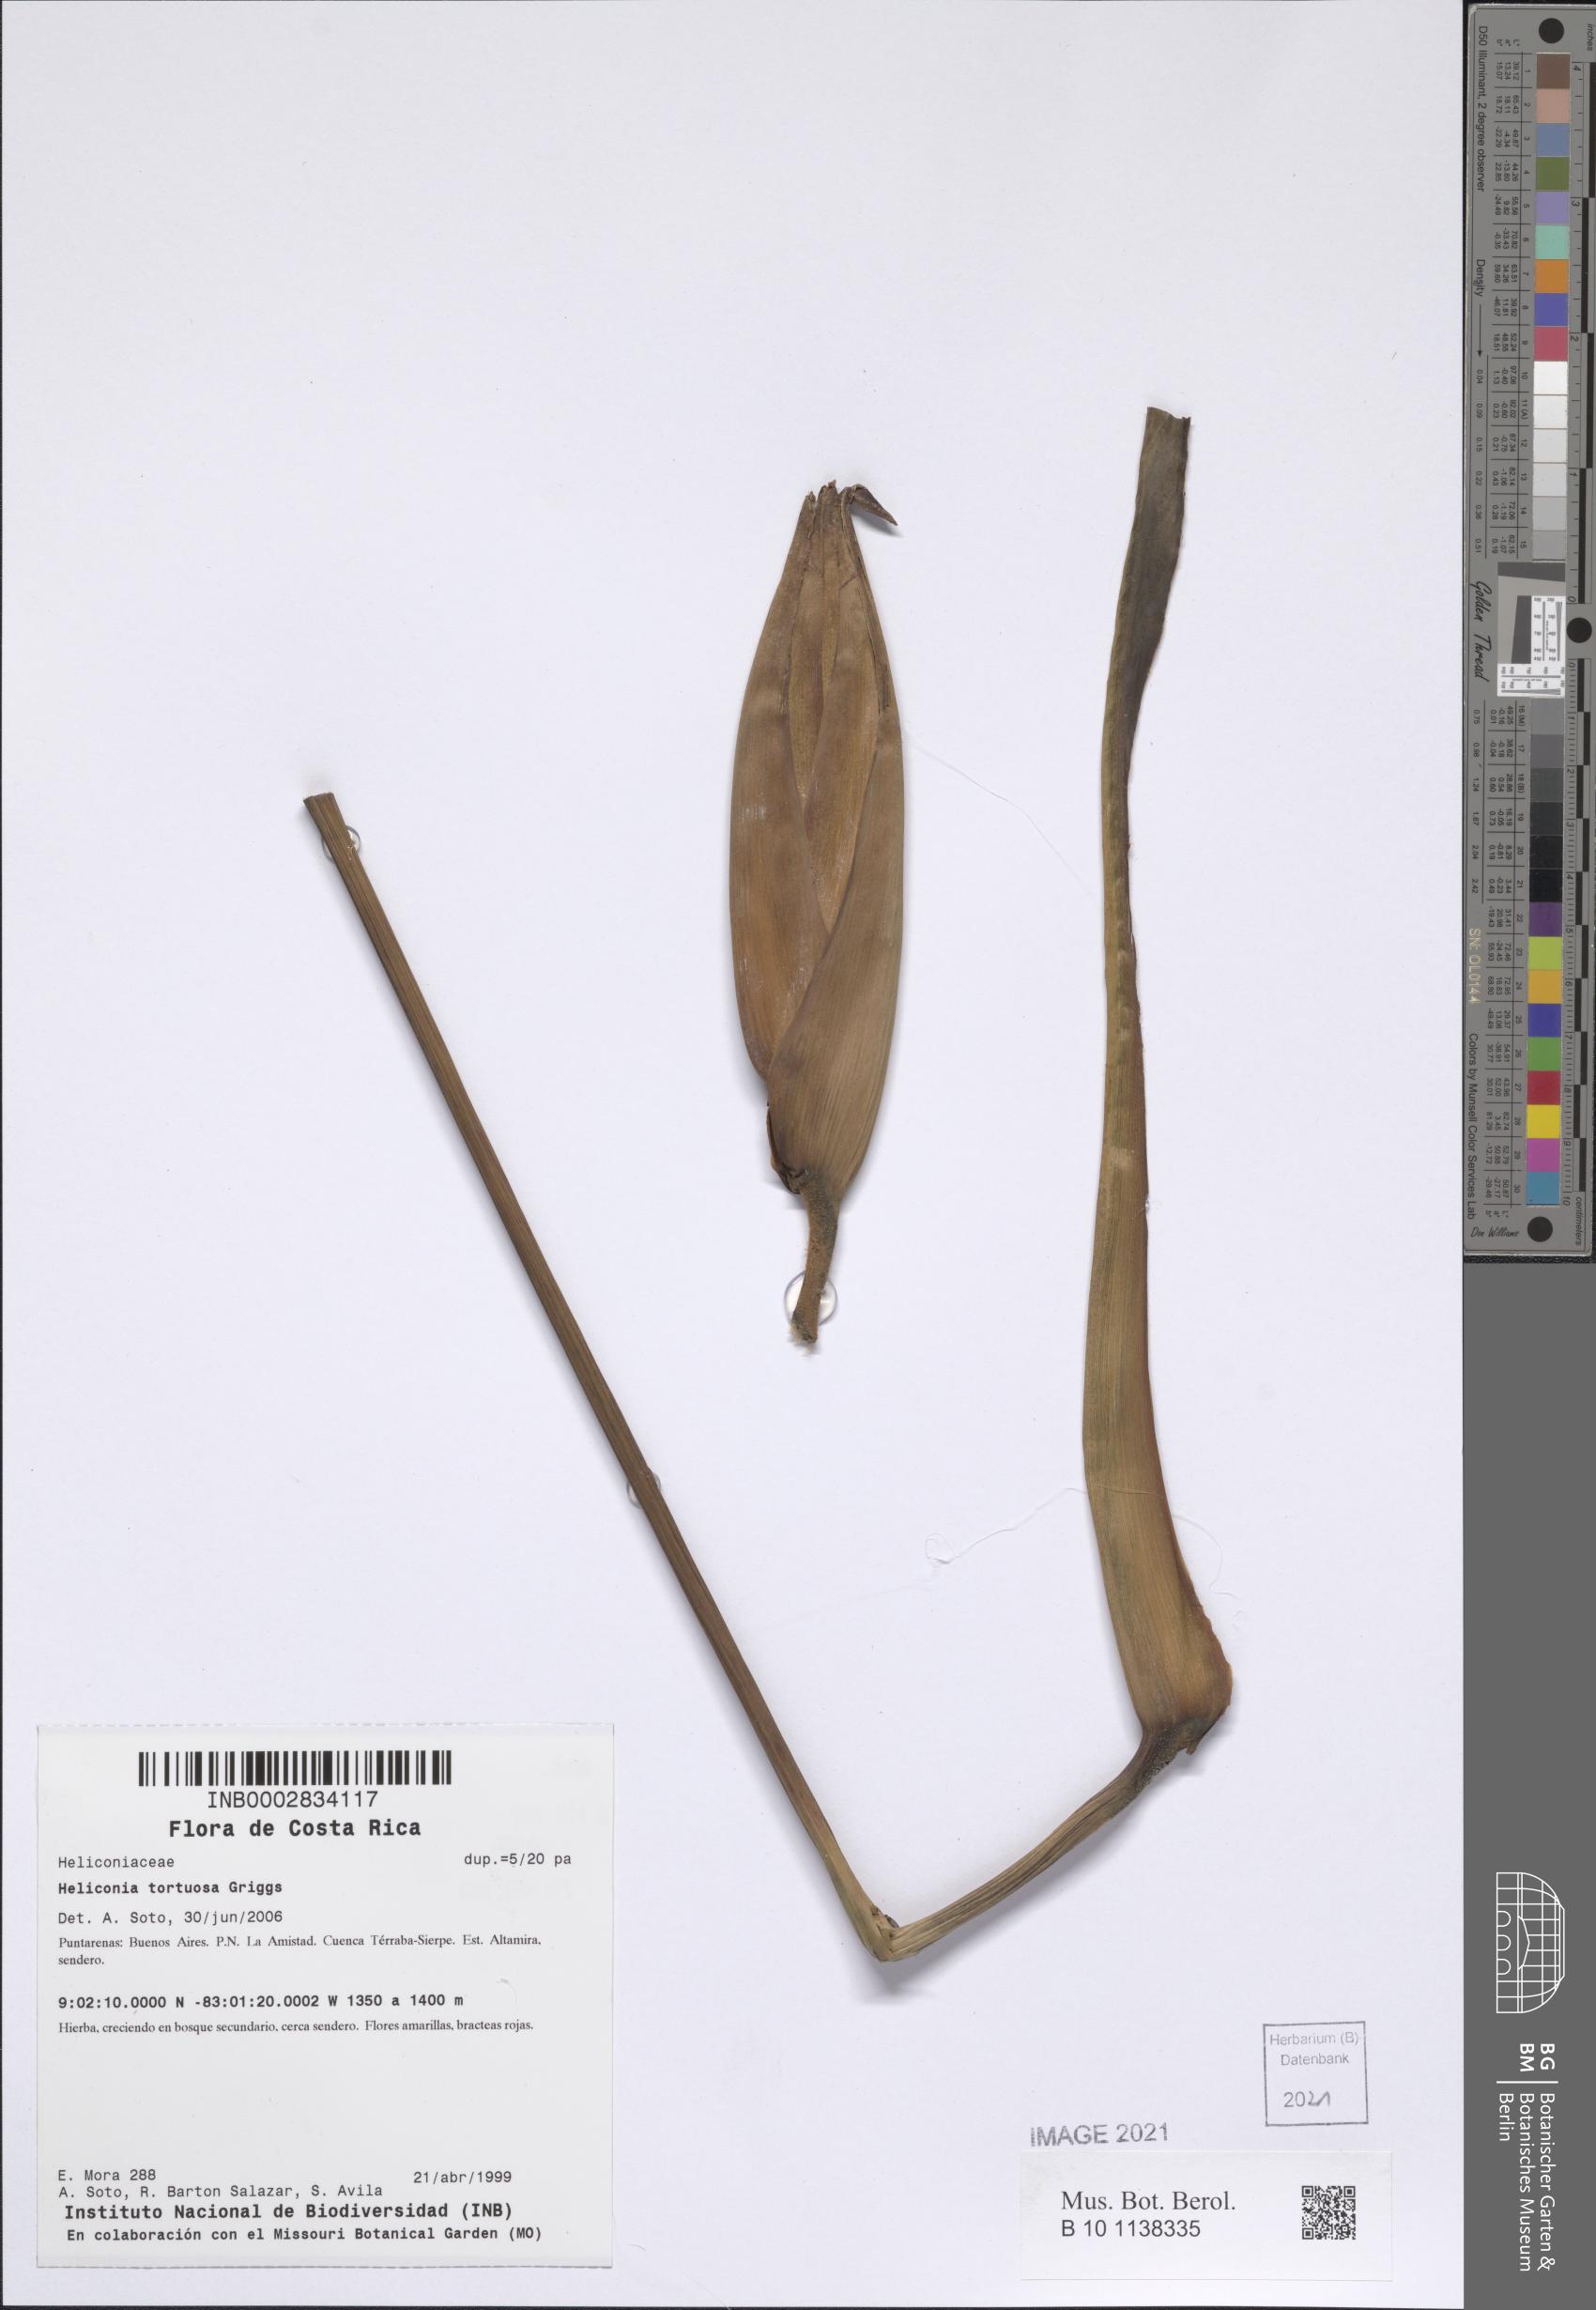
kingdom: Plantae
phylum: Tracheophyta
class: Liliopsida
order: Zingiberales
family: Heliconiaceae
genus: Heliconia
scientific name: Heliconia tortuosa
